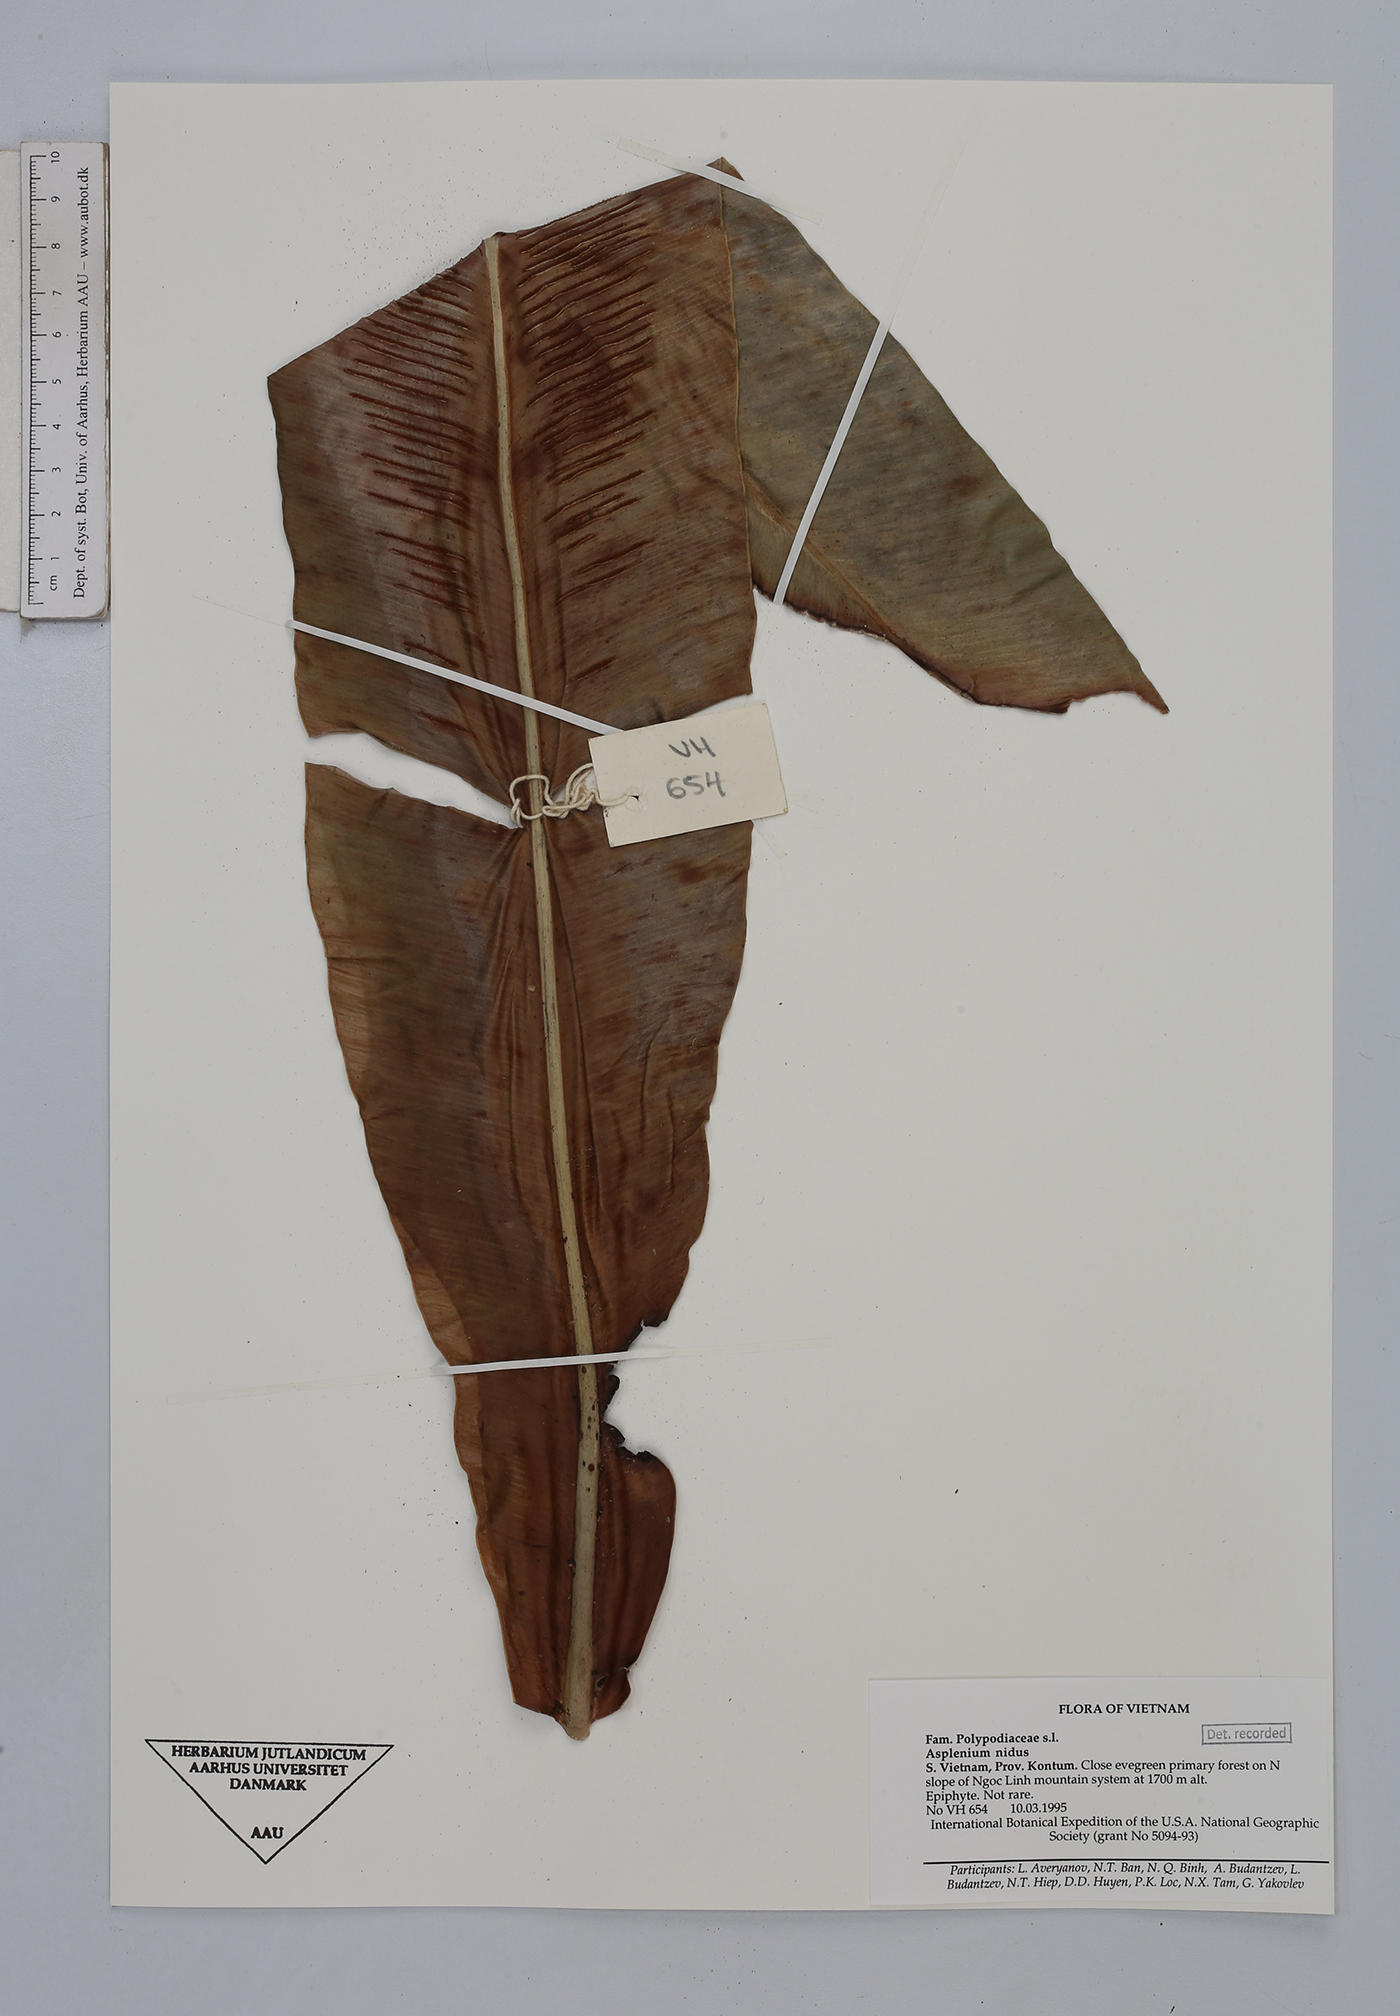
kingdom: Plantae
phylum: Tracheophyta
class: Polypodiopsida
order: Polypodiales
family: Aspleniaceae
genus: Asplenium
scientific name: Asplenium nidus
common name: Bird's-nest fern
